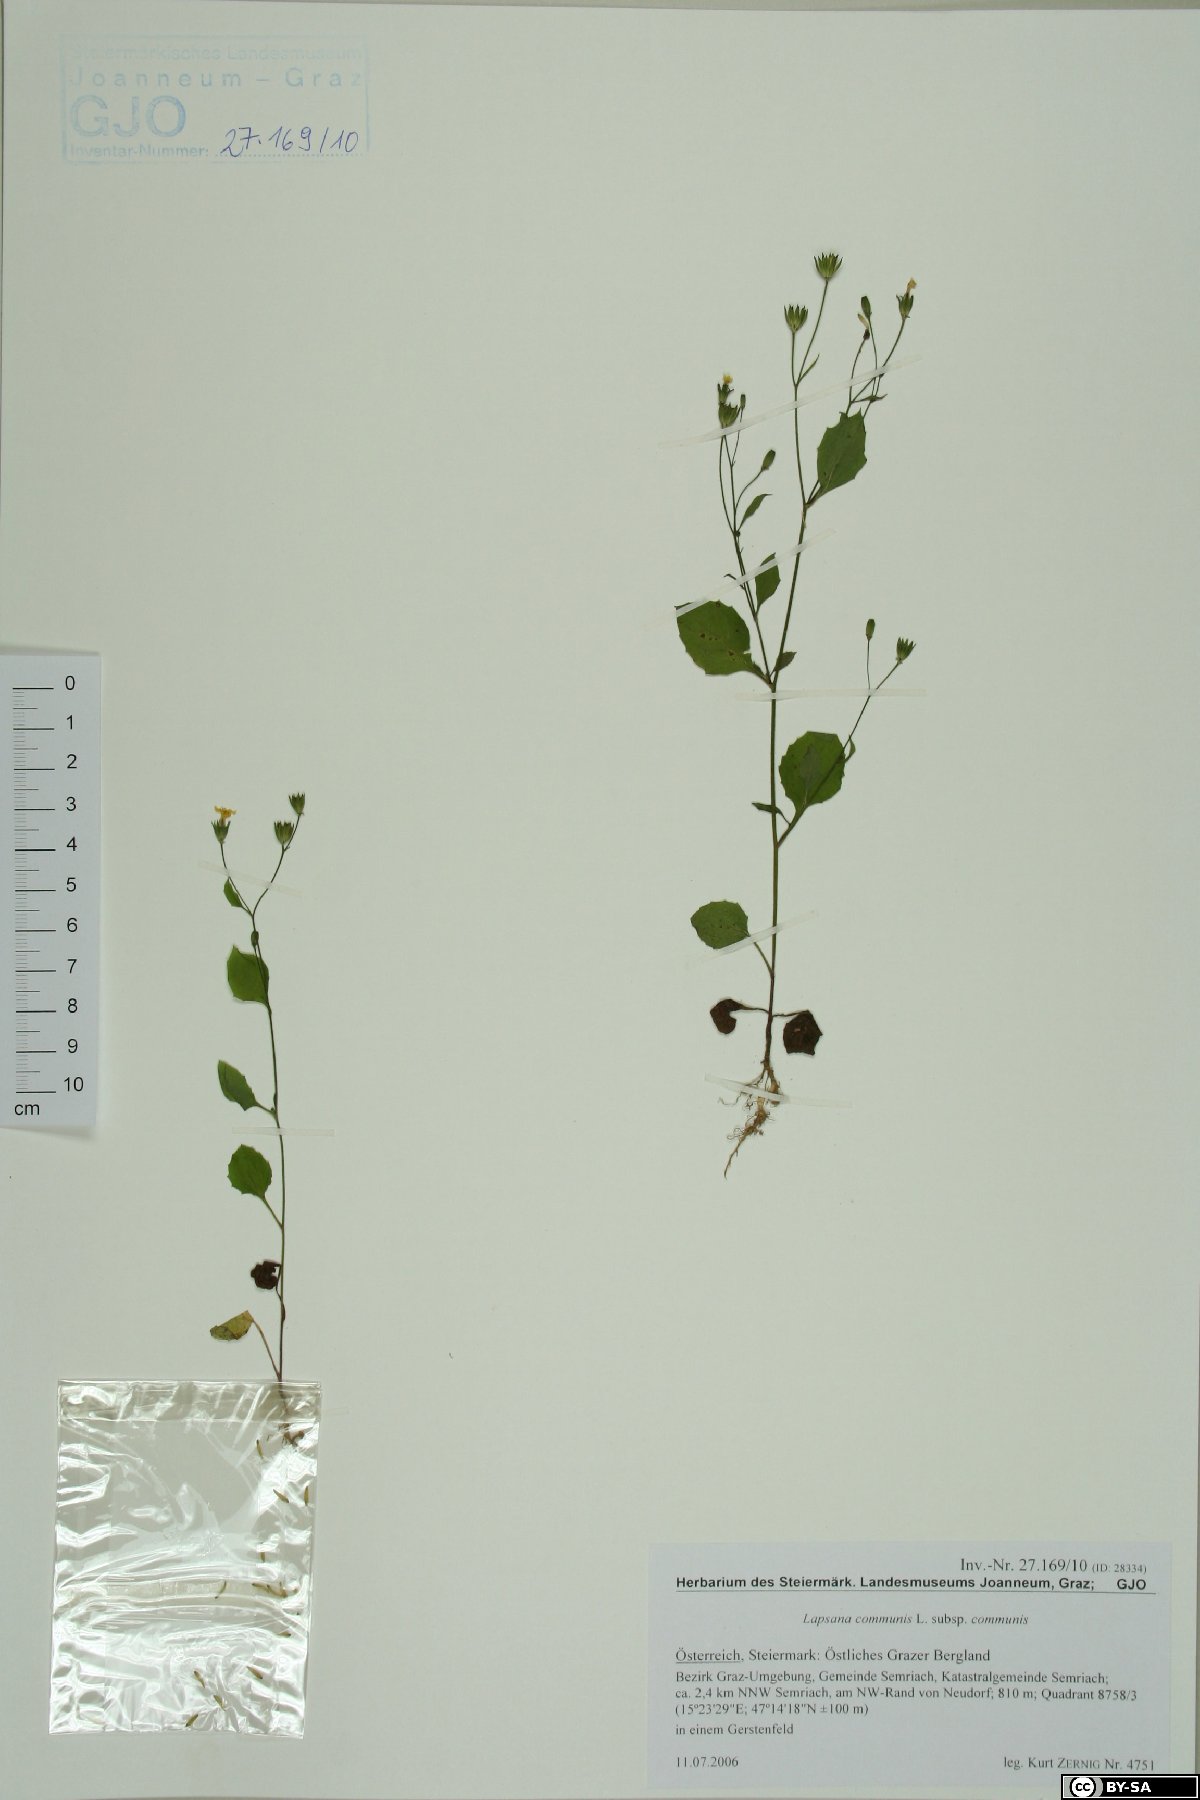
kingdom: Plantae
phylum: Tracheophyta
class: Magnoliopsida
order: Asterales
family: Asteraceae
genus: Lapsana
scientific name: Lapsana communis
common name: Nipplewort
